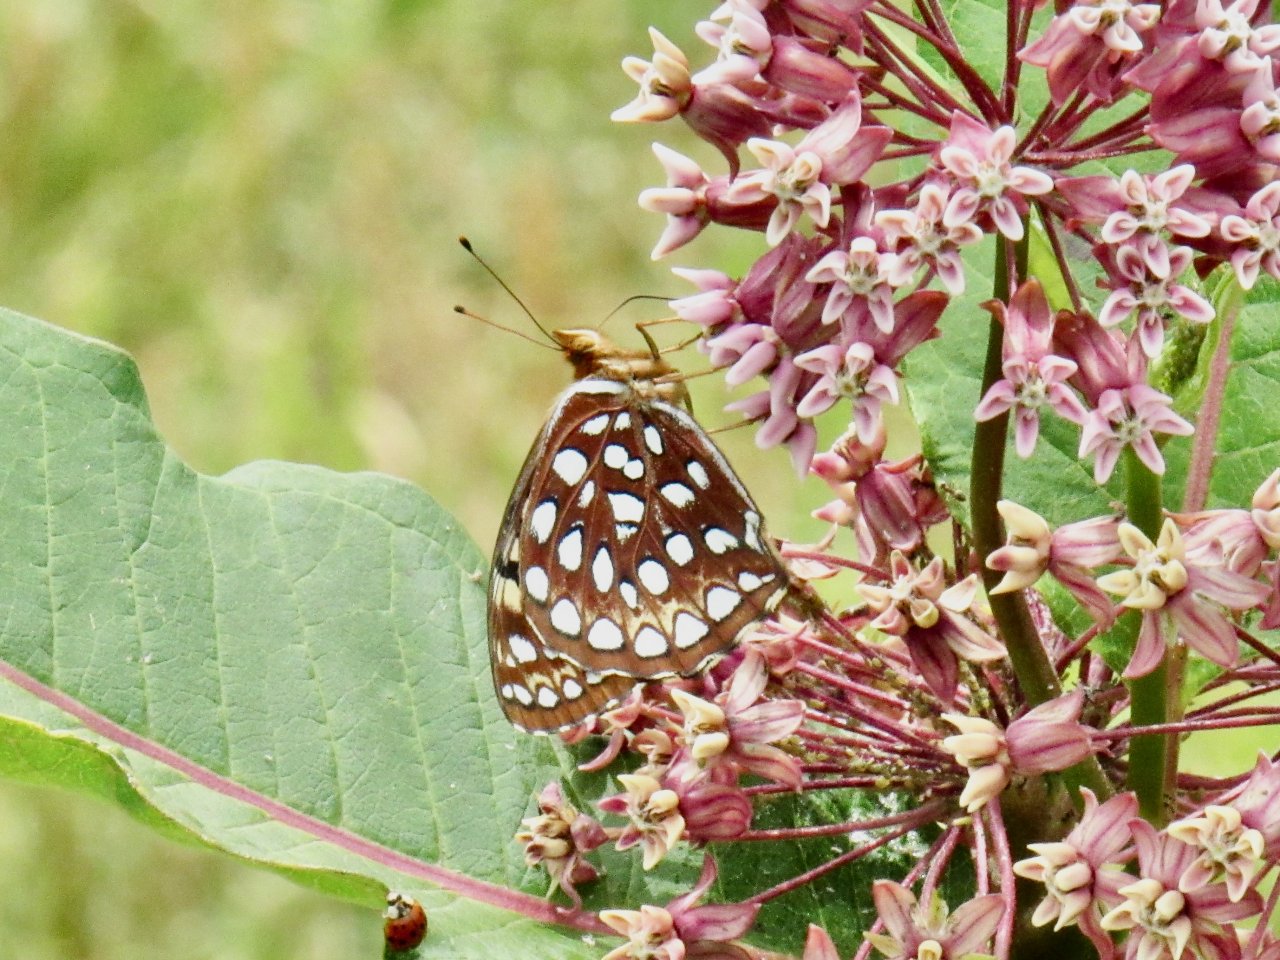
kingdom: Animalia
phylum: Arthropoda
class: Insecta
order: Lepidoptera
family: Nymphalidae
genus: Speyeria
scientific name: Speyeria aphrodite
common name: Aphrodite Fritillary
